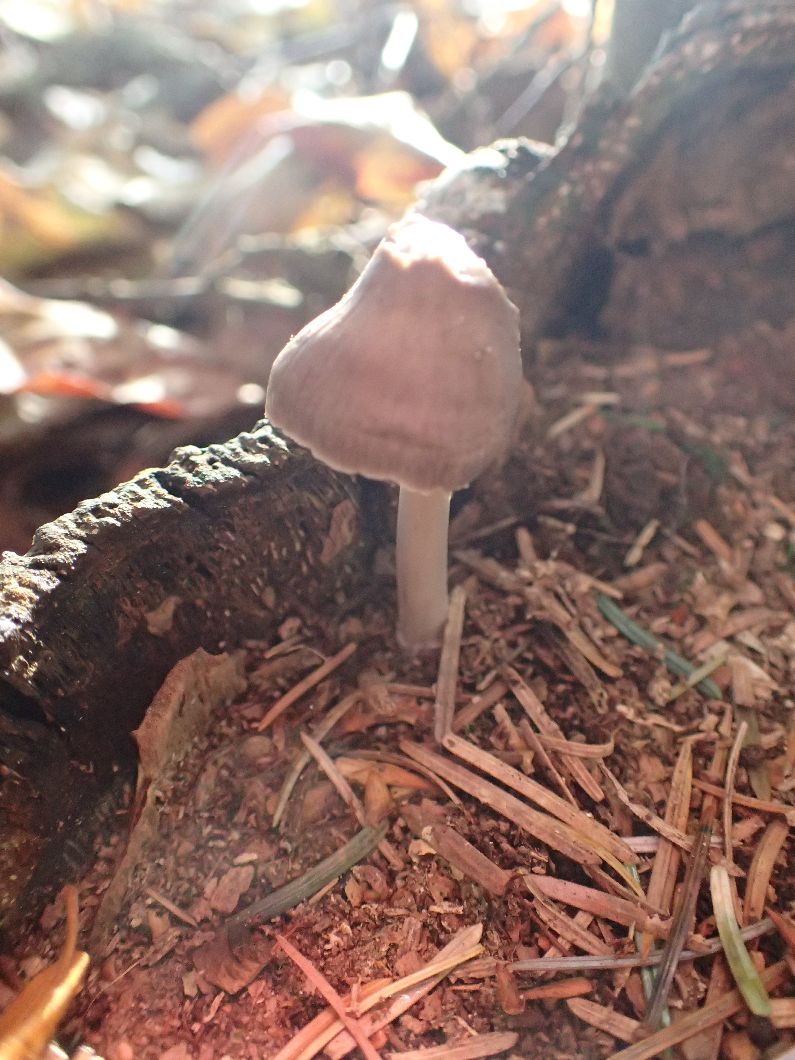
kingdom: Fungi
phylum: Basidiomycota
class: Agaricomycetes
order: Agaricales
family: Mycenaceae
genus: Mycena
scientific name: Mycena galericulata
